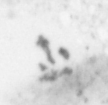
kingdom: Animalia
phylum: Chordata
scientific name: Chordata
